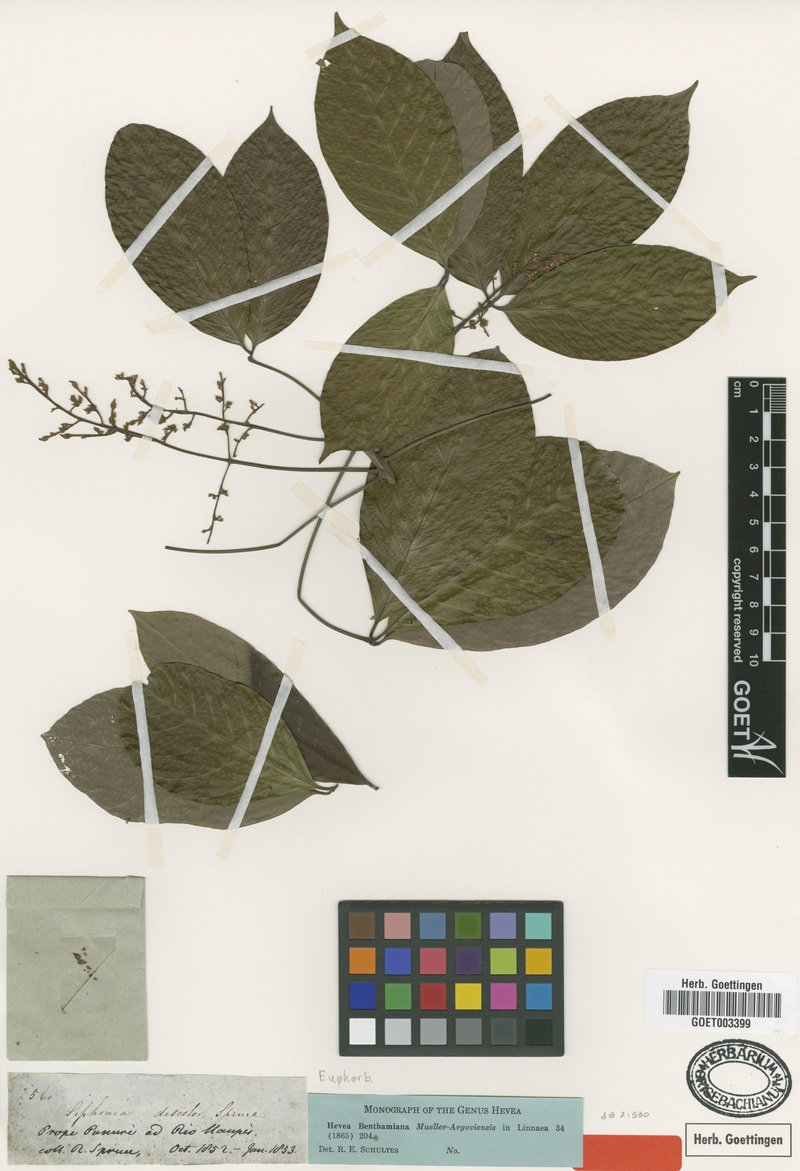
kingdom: Plantae
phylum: Tracheophyta
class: Magnoliopsida
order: Malpighiales
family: Euphorbiaceae
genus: Hevea
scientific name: Hevea benthamiana
